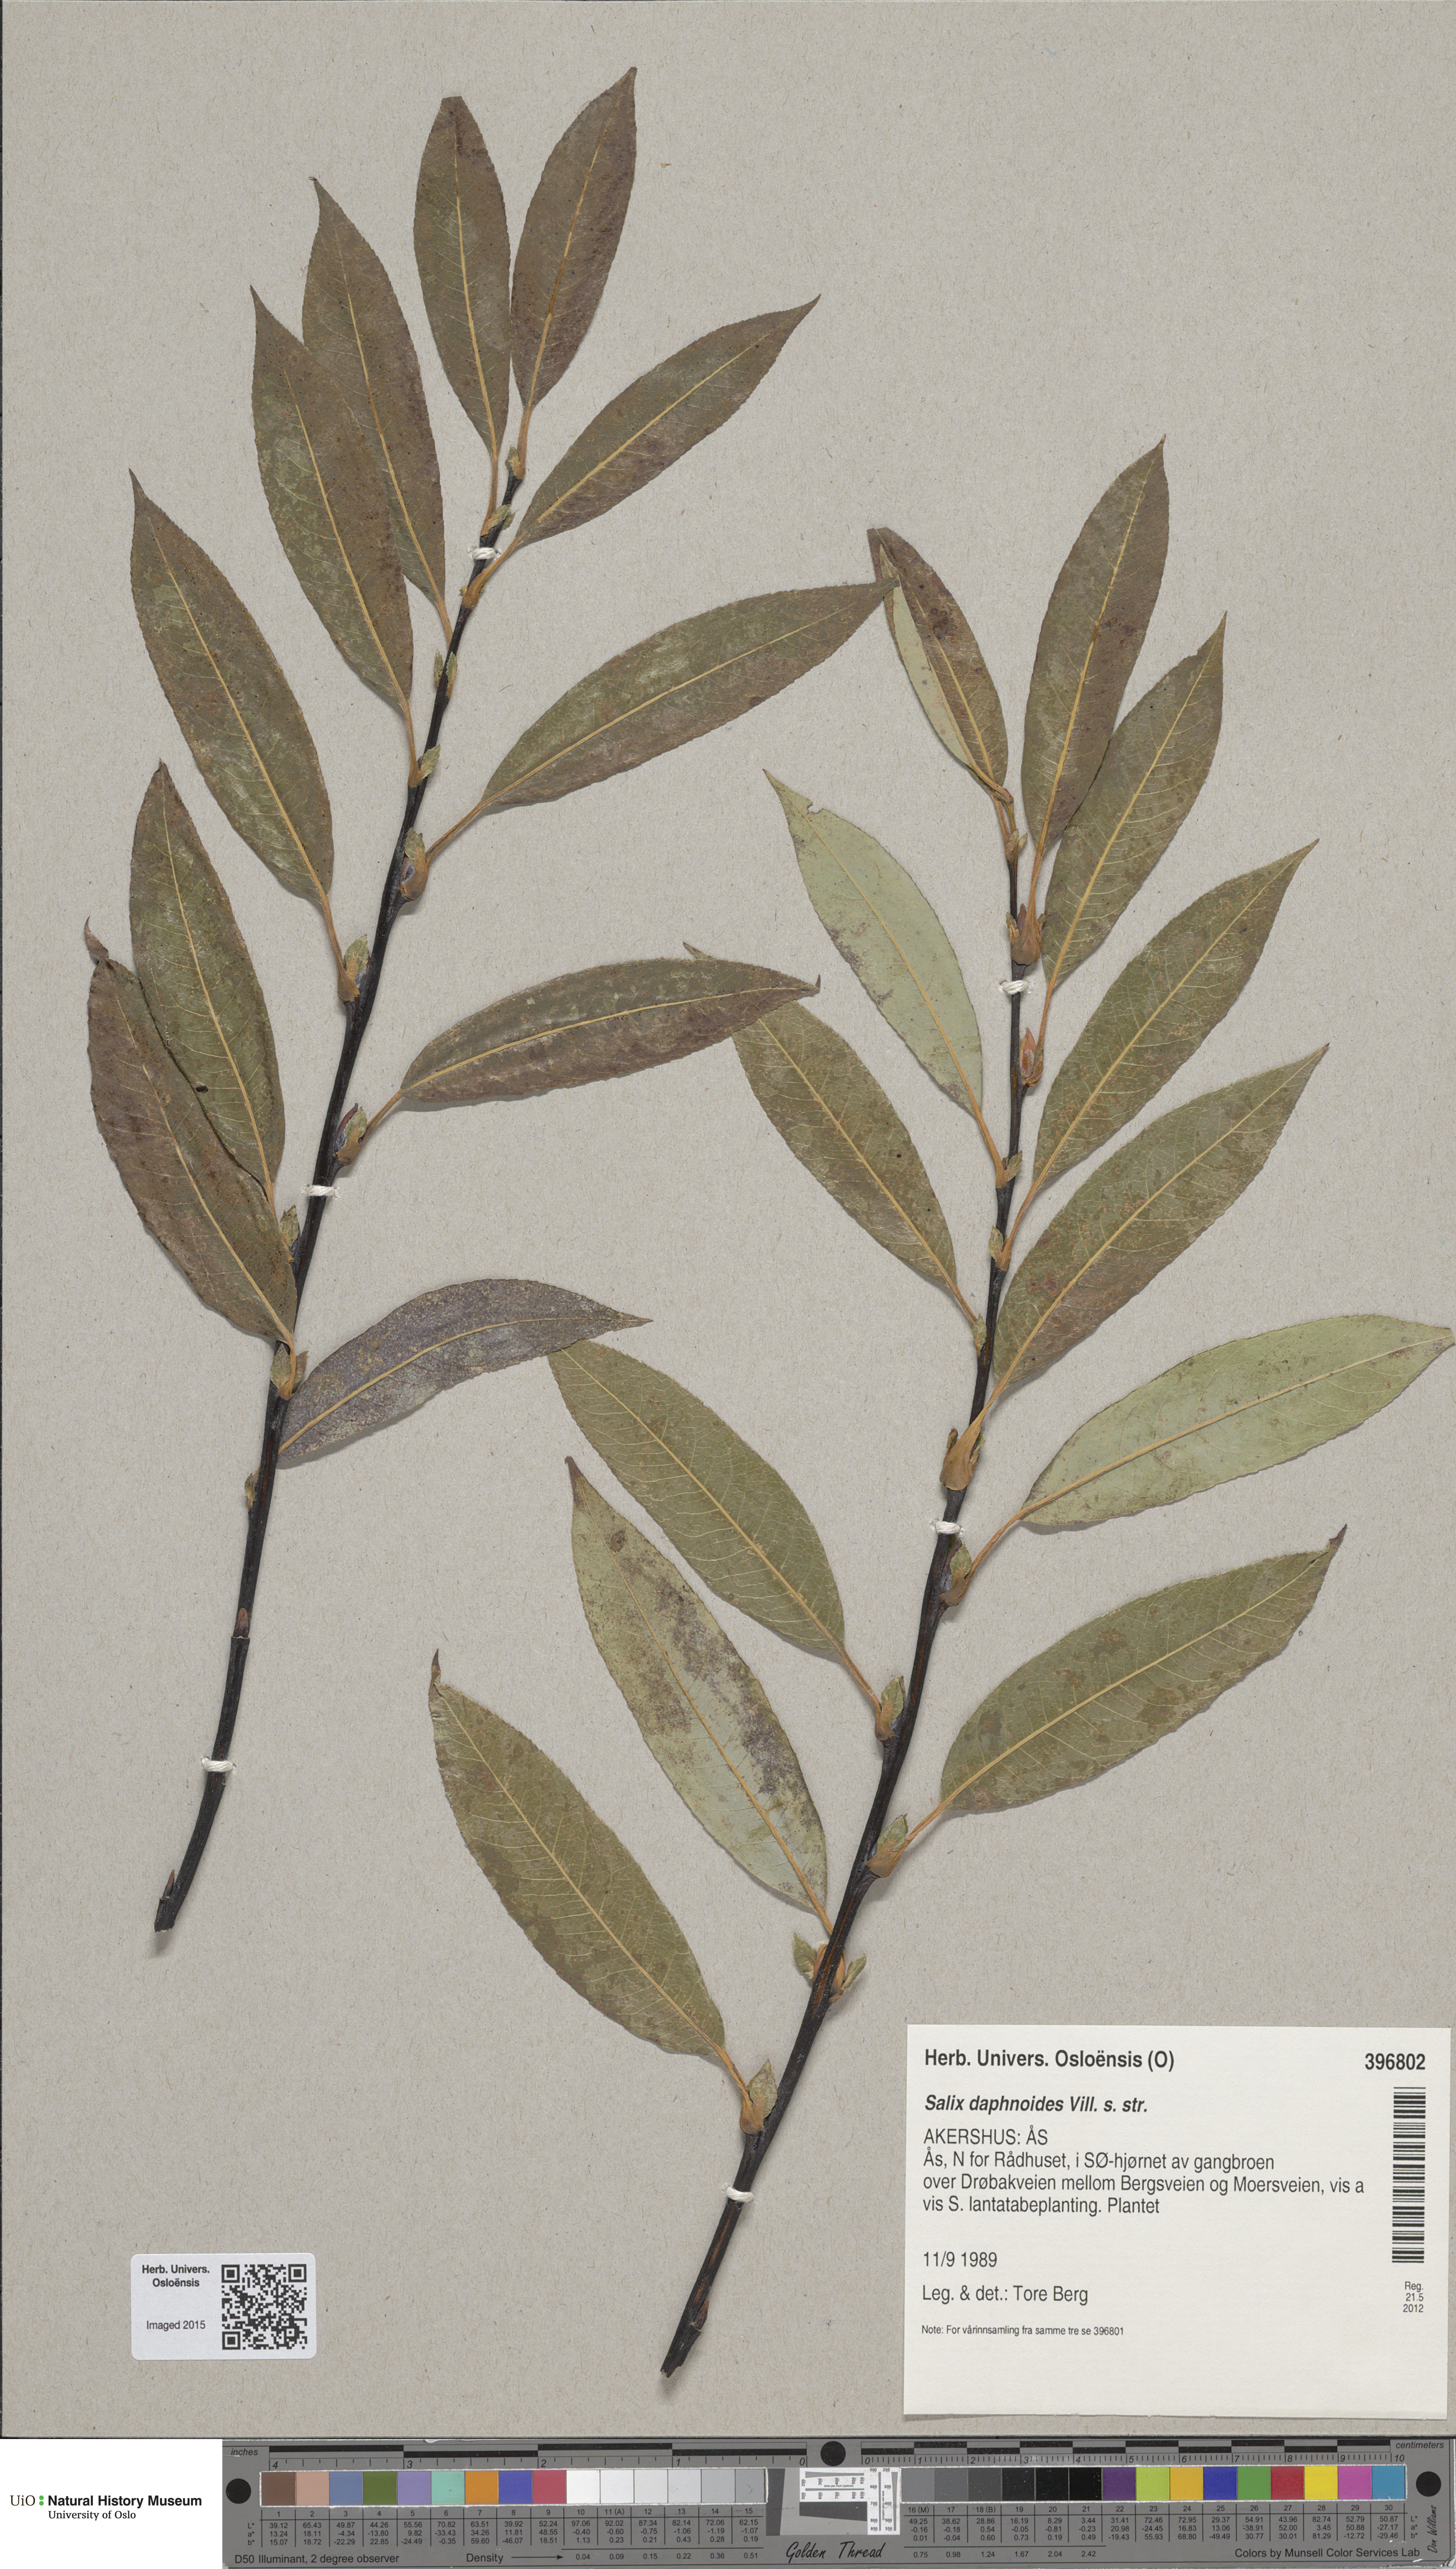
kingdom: Plantae
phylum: Tracheophyta
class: Magnoliopsida
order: Malpighiales
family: Salicaceae
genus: Salix
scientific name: Salix daphnoides
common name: European violet-willow
